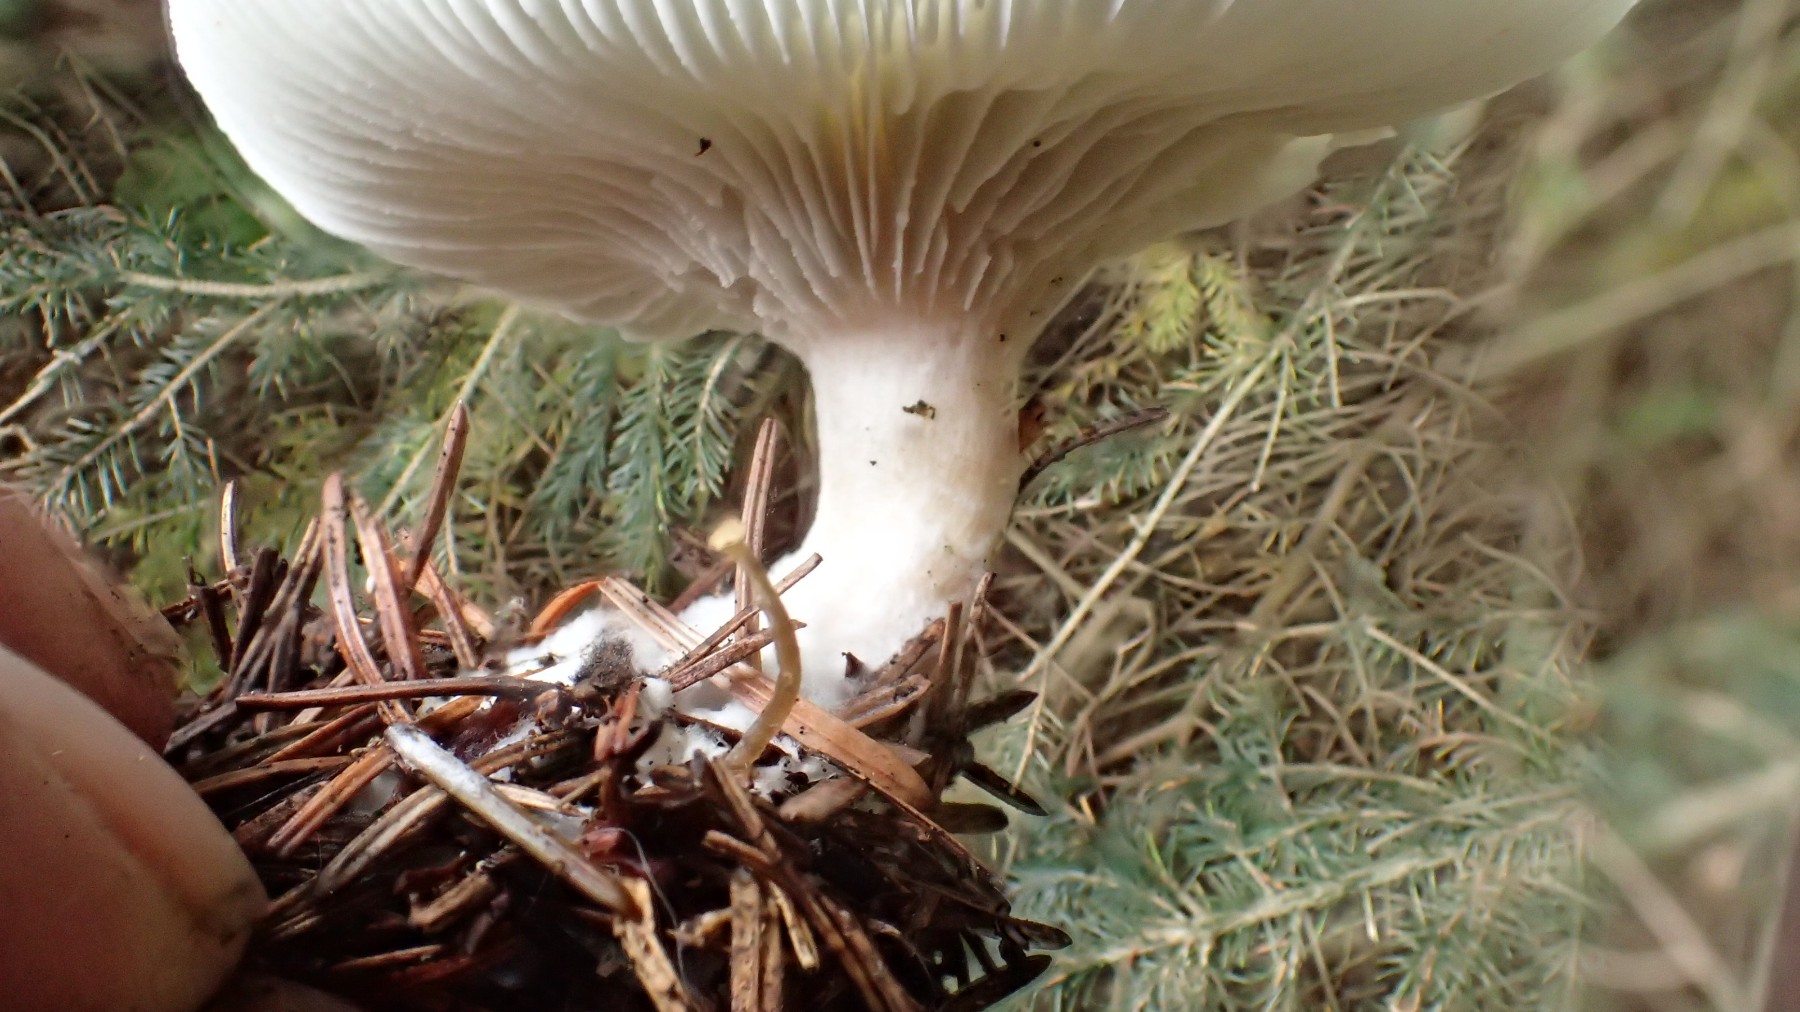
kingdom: Fungi
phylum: Basidiomycota
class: Agaricomycetes
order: Agaricales
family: Tricholomataceae
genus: Clitocybe
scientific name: Clitocybe odora
